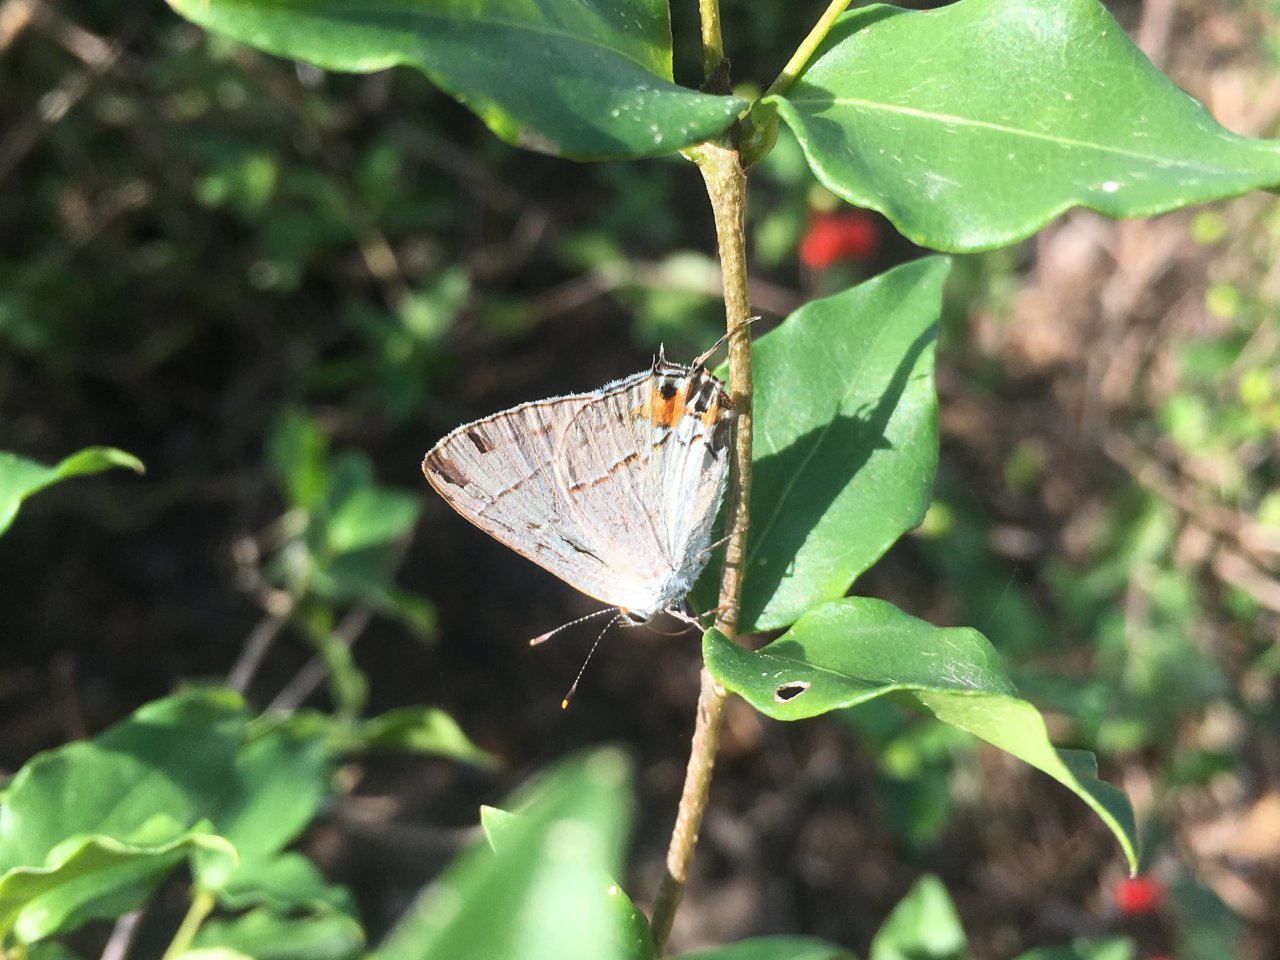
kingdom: Animalia
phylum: Arthropoda
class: Insecta
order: Lepidoptera
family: Lycaenidae
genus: Strymon
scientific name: Strymon melinus
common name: Gray Hairstreak
